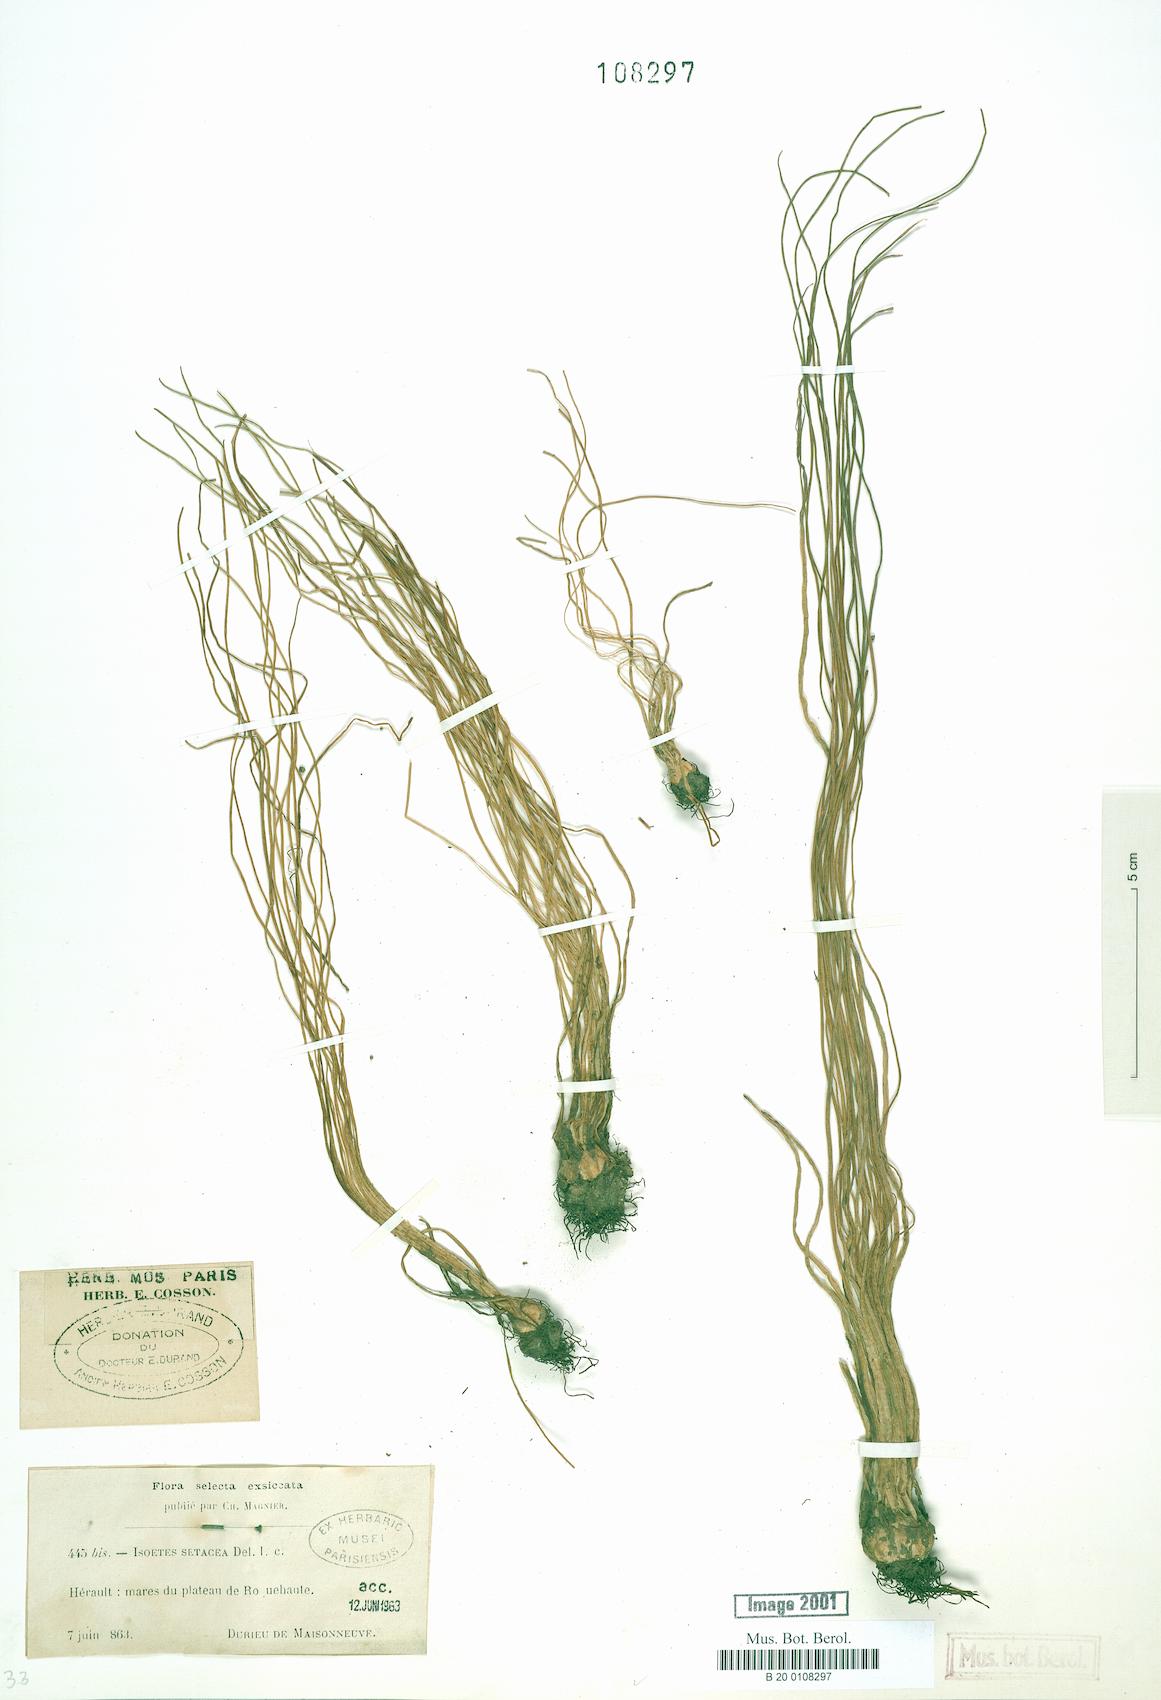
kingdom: Plantae
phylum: Tracheophyta
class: Lycopodiopsida
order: Isoetales
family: Isoetaceae
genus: Isoetes
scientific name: Isoetes lacustris
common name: Common quillwort
